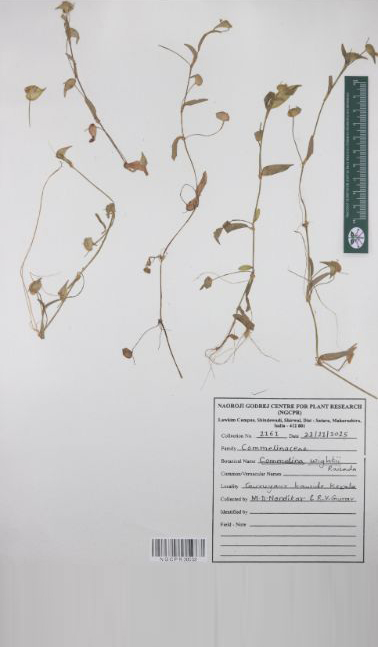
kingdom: Plantae
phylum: Tracheophyta
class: Liliopsida
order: Commelinales
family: Commelinaceae
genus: Commelina
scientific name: Commelina wightii
